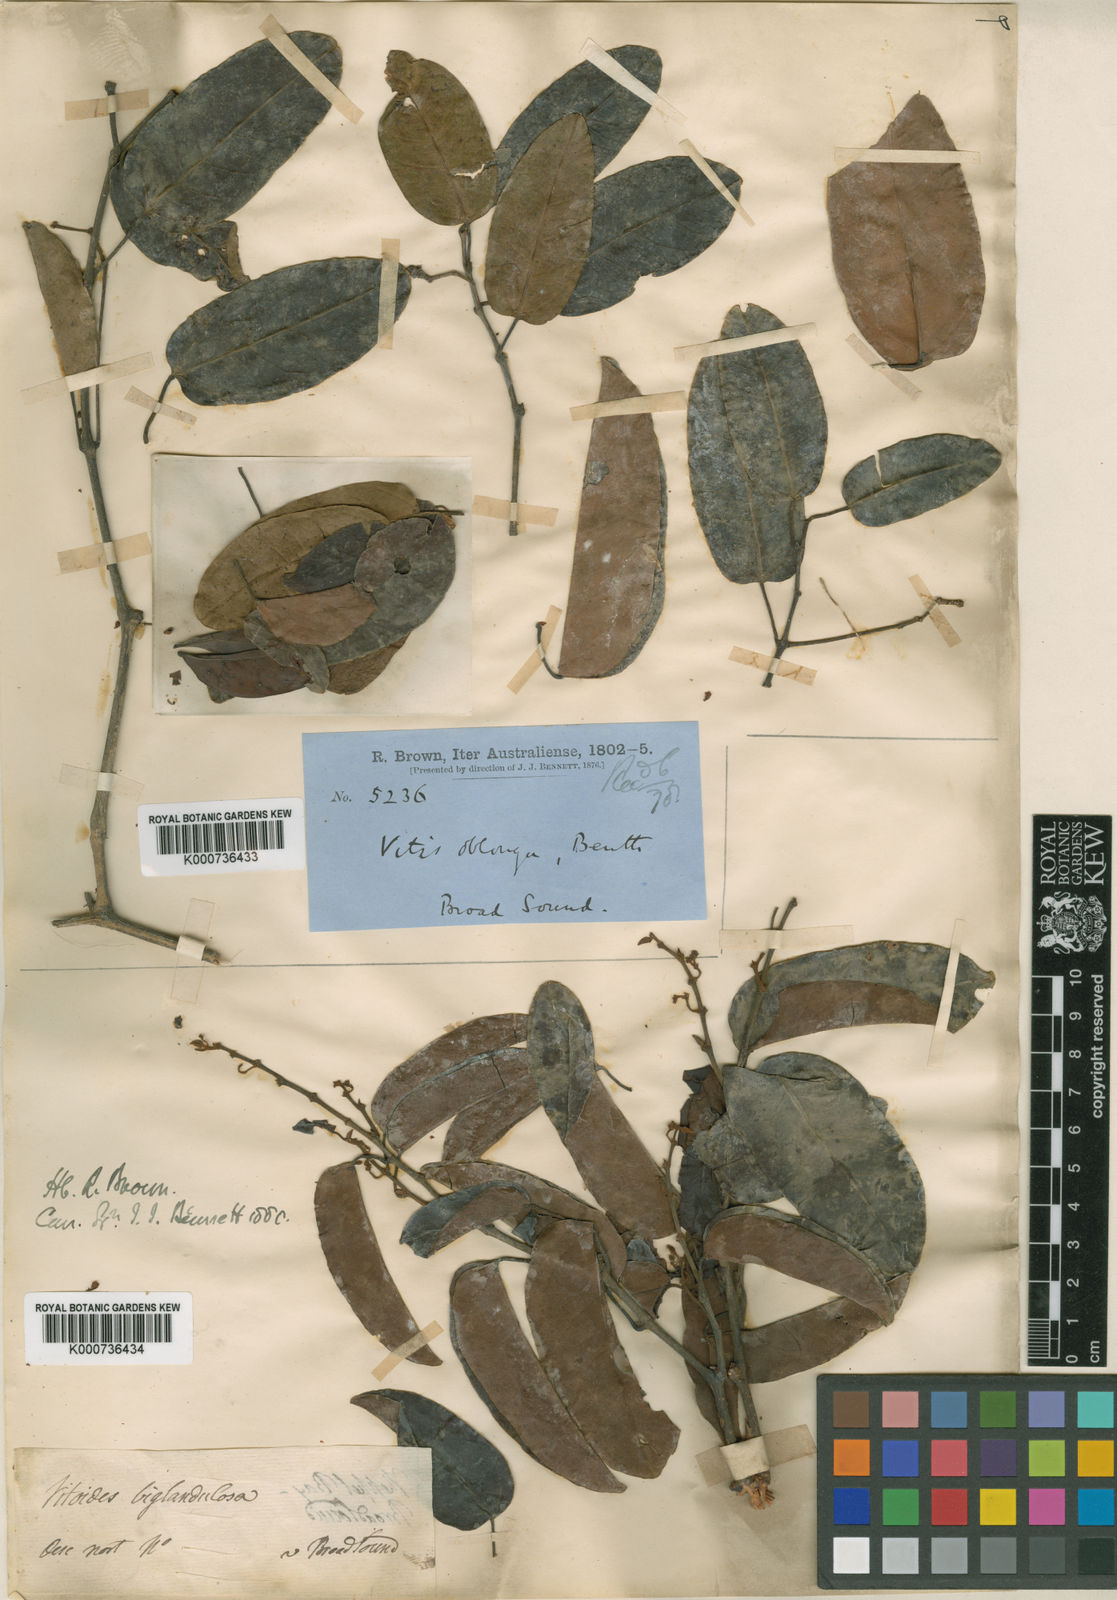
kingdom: Plantae
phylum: Tracheophyta
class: Magnoliopsida
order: Vitales
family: Vitaceae
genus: Cissus
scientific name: Cissus oblonga
